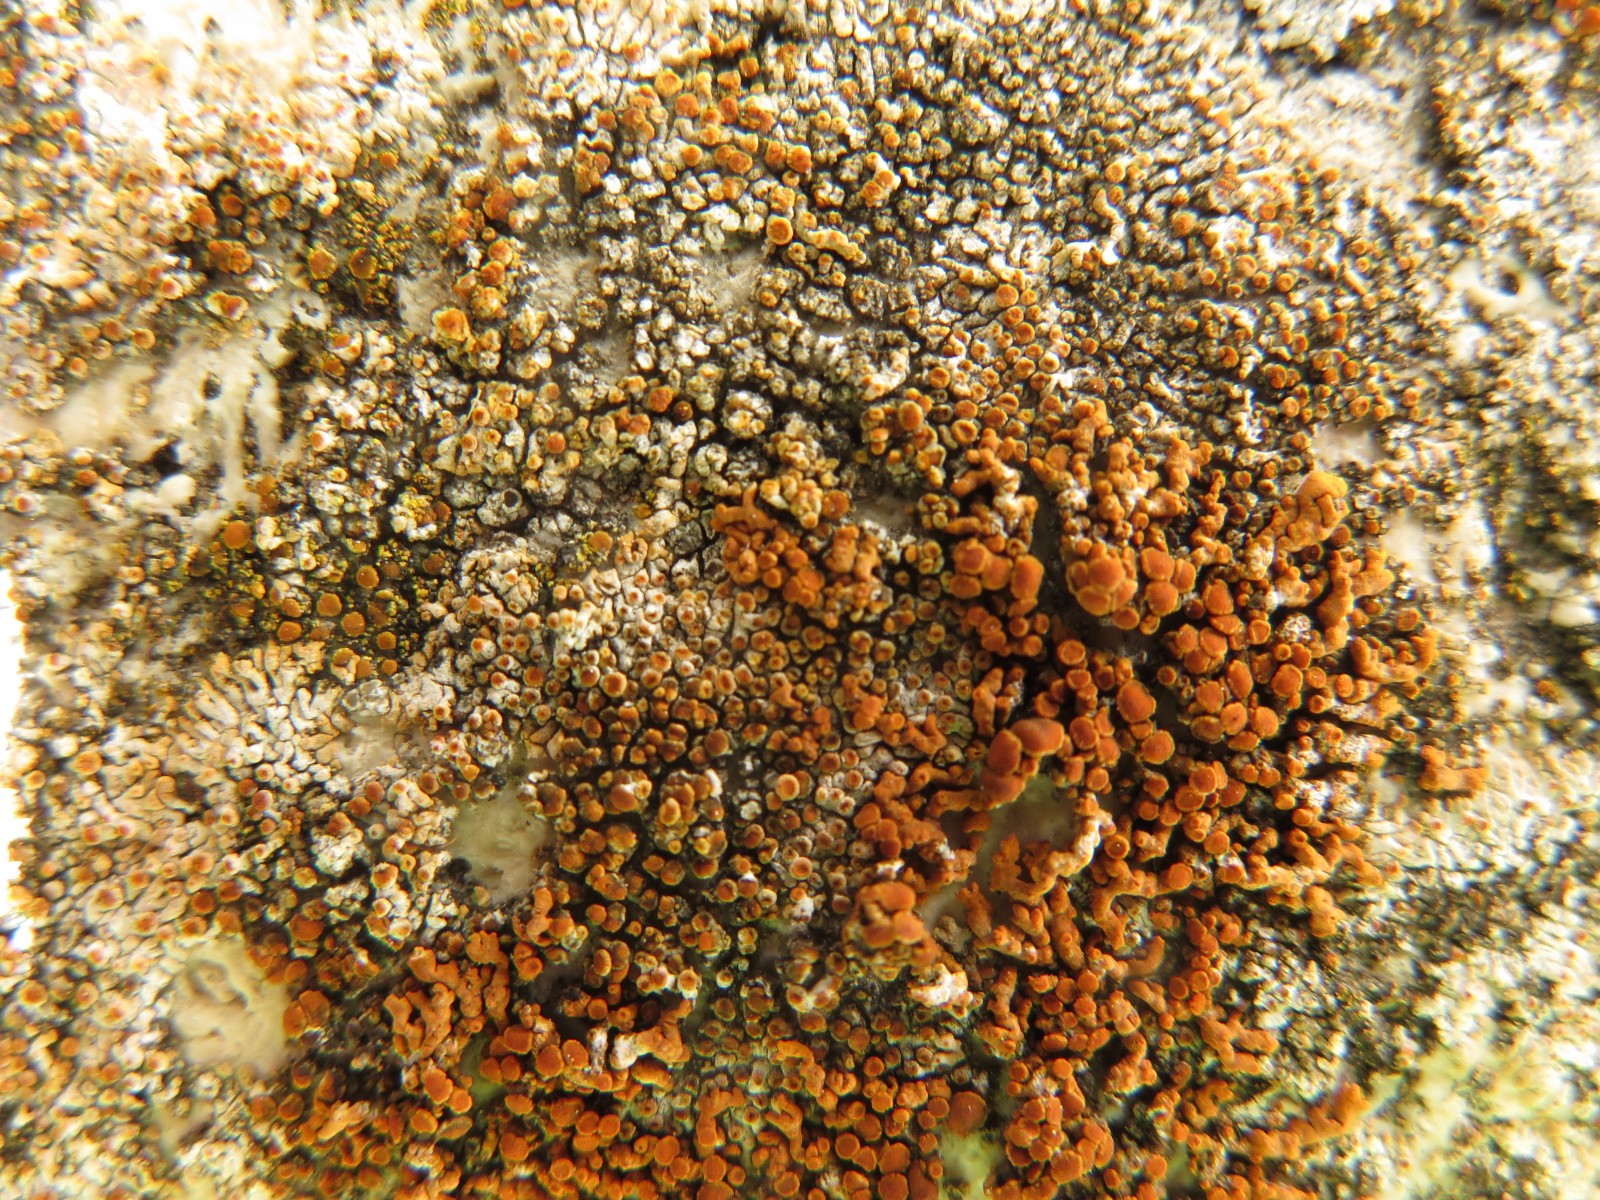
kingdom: Fungi
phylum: Ascomycota
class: Lecanoromycetes
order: Teloschistales
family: Teloschistaceae
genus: Calogaya
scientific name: Calogaya pusilla
